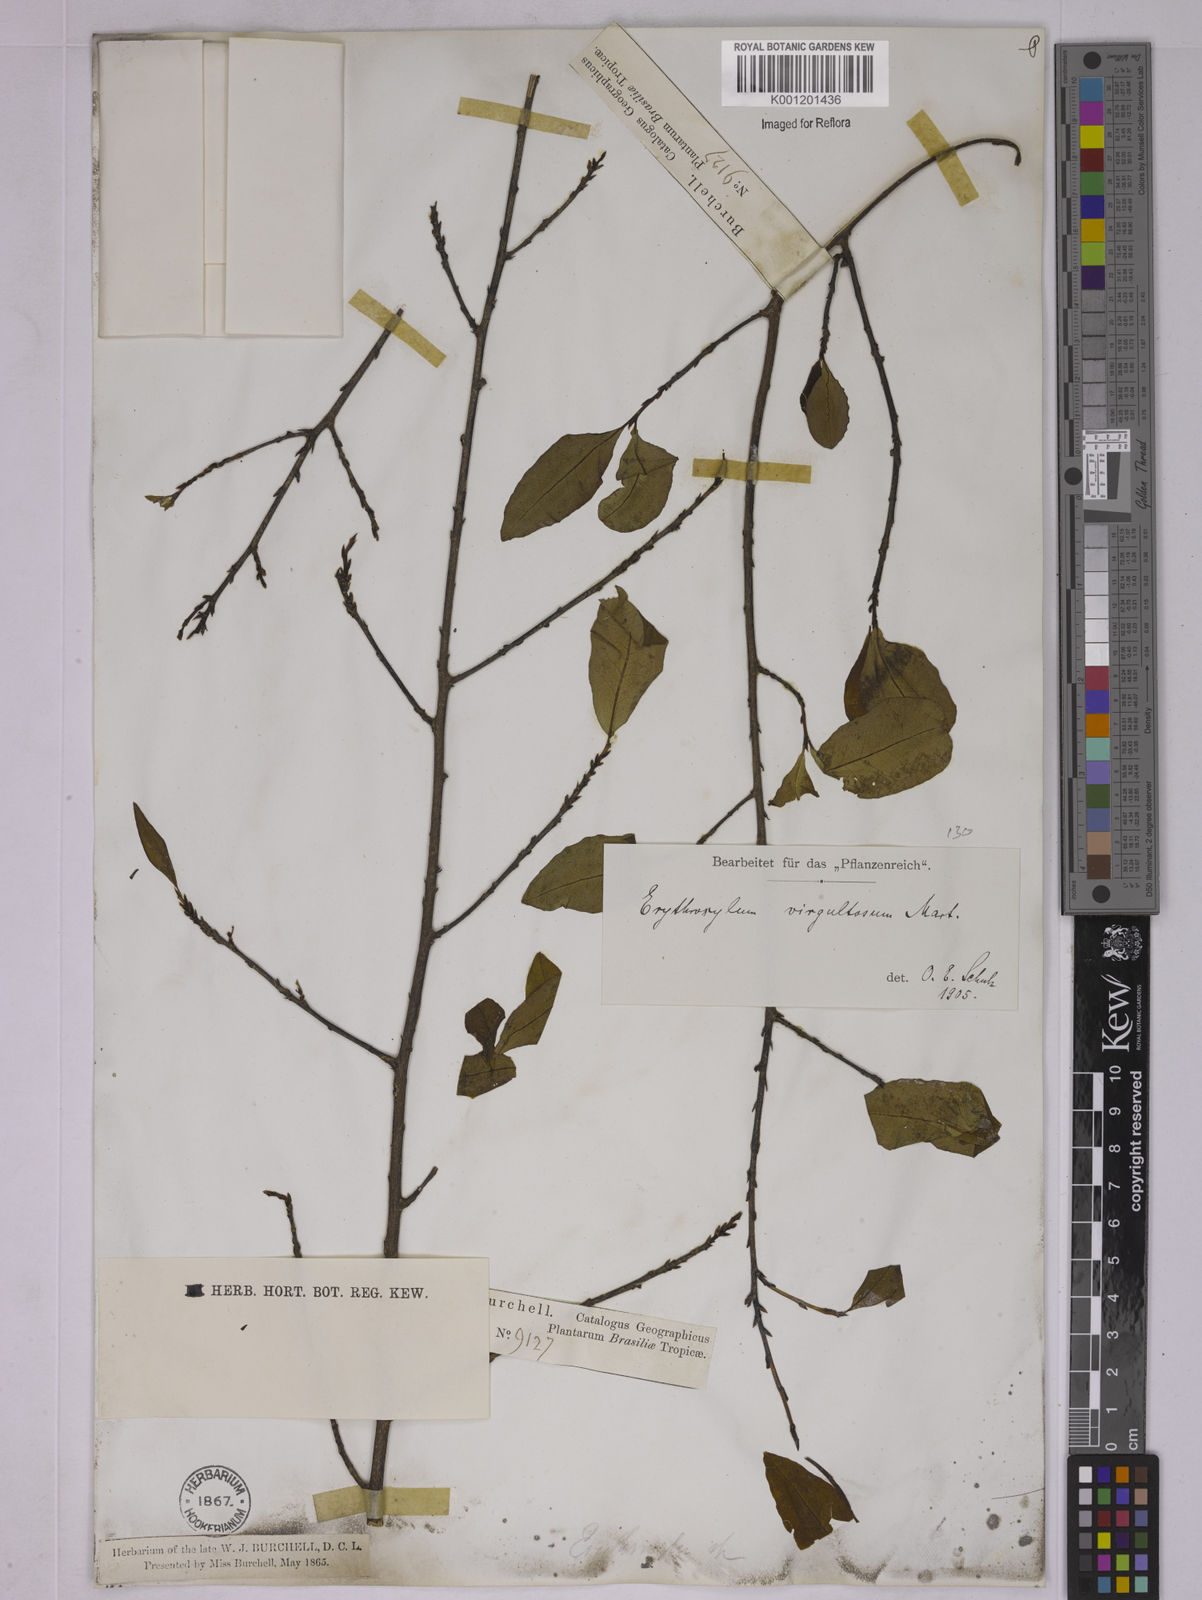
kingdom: Plantae
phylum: Tracheophyta
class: Magnoliopsida
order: Malpighiales
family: Erythroxylaceae
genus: Erythroxylum
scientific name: Erythroxylum subglaucescens
